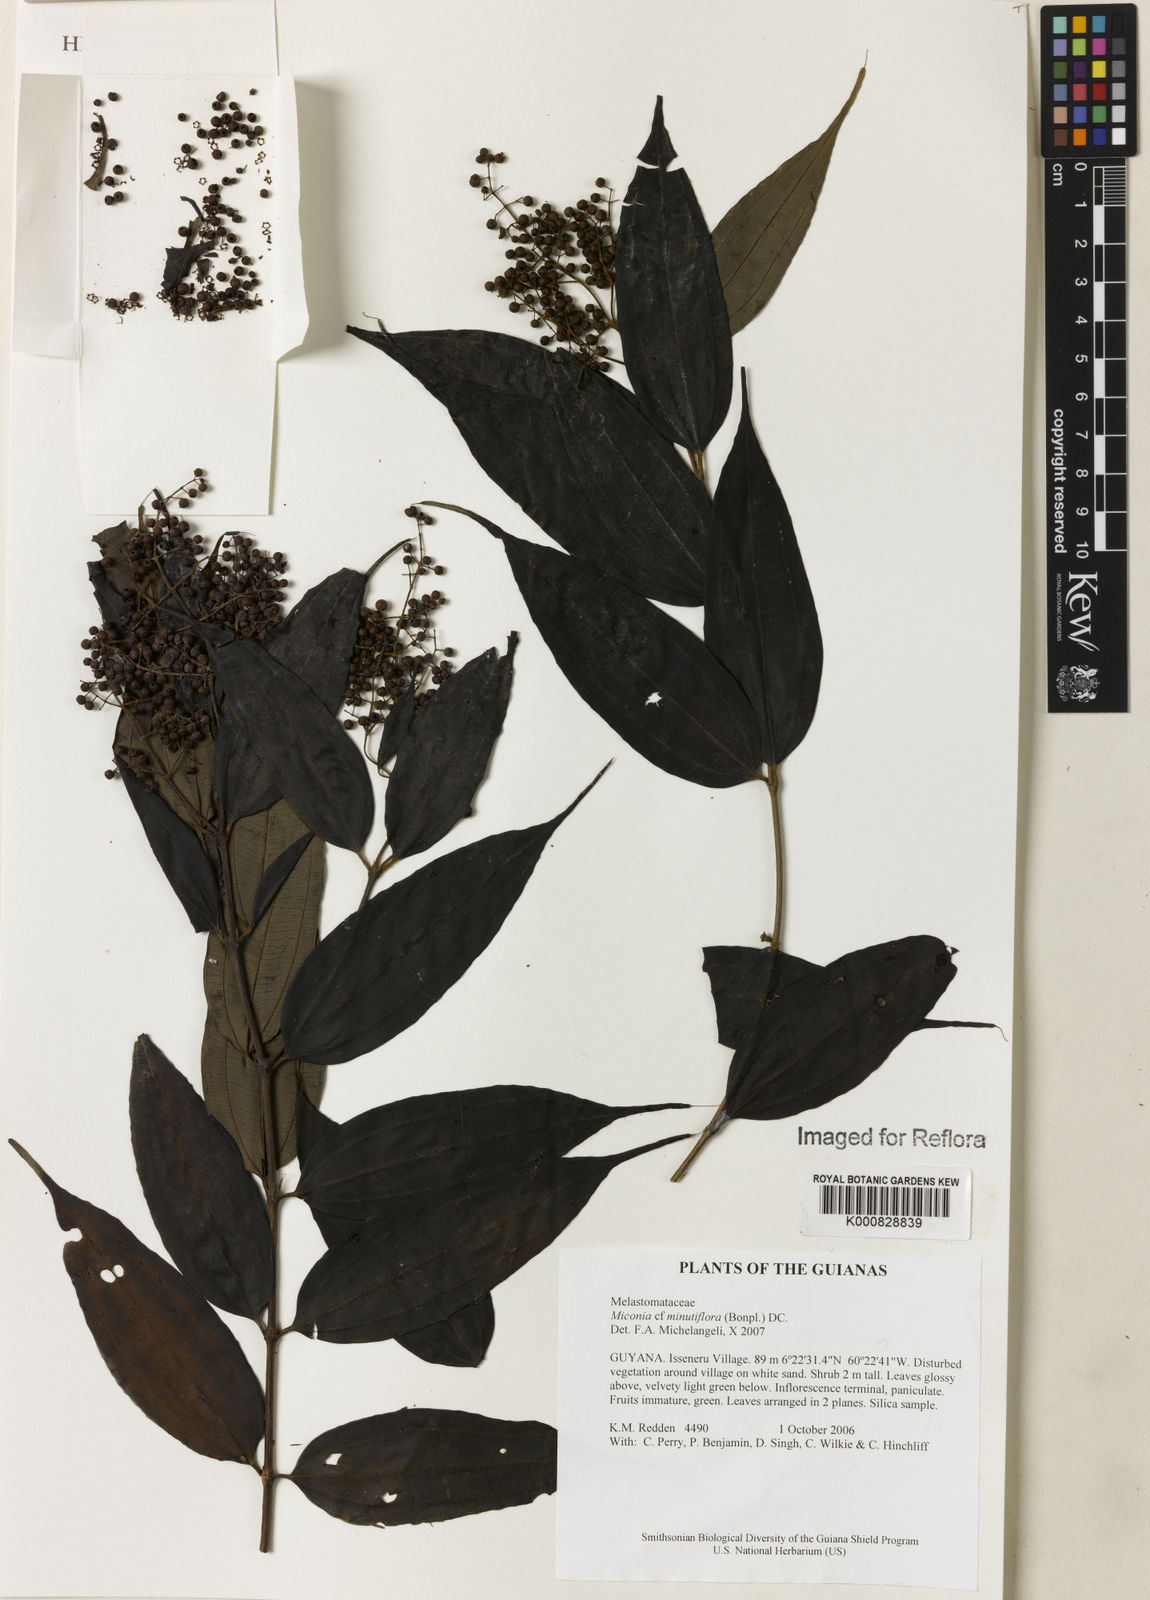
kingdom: Plantae
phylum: Tracheophyta
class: Magnoliopsida
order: Myrtales
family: Melastomataceae
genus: Miconia
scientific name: Miconia minutiflora
